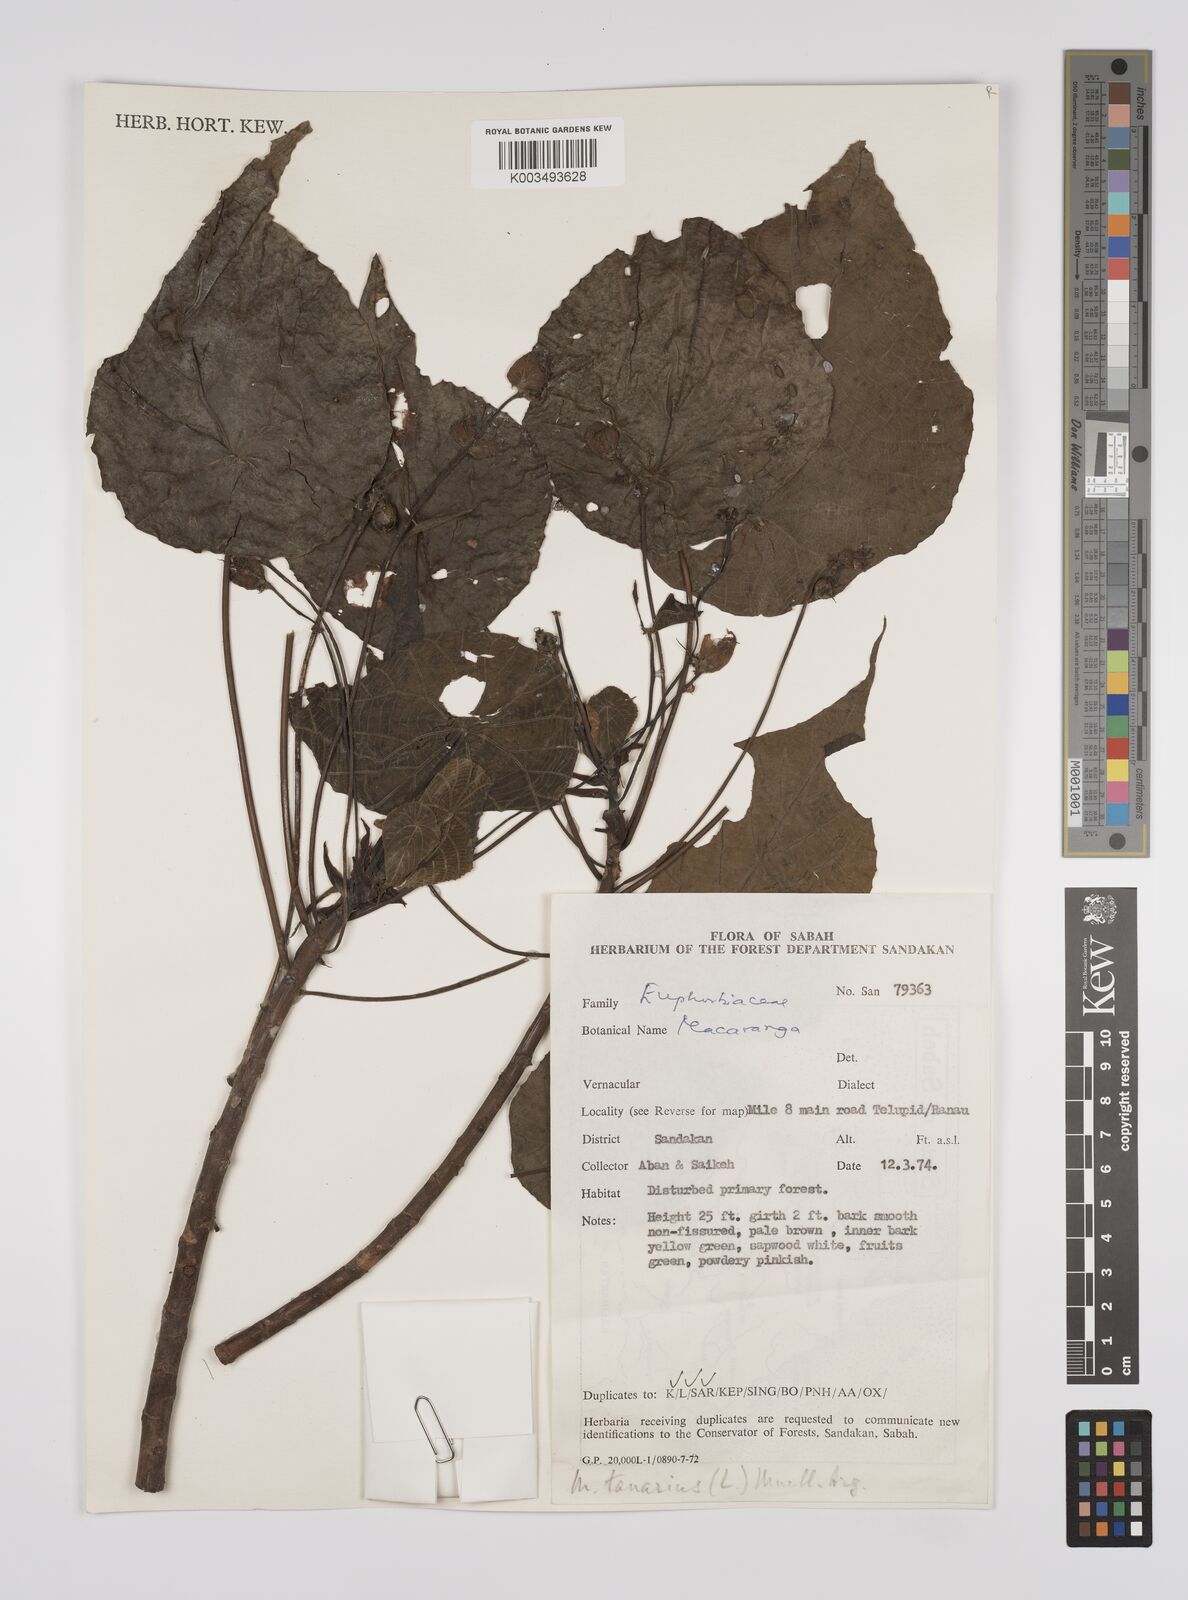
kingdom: Plantae
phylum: Tracheophyta
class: Magnoliopsida
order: Malpighiales
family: Euphorbiaceae
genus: Macaranga
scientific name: Macaranga tanarius
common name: Parasol leaf tree
